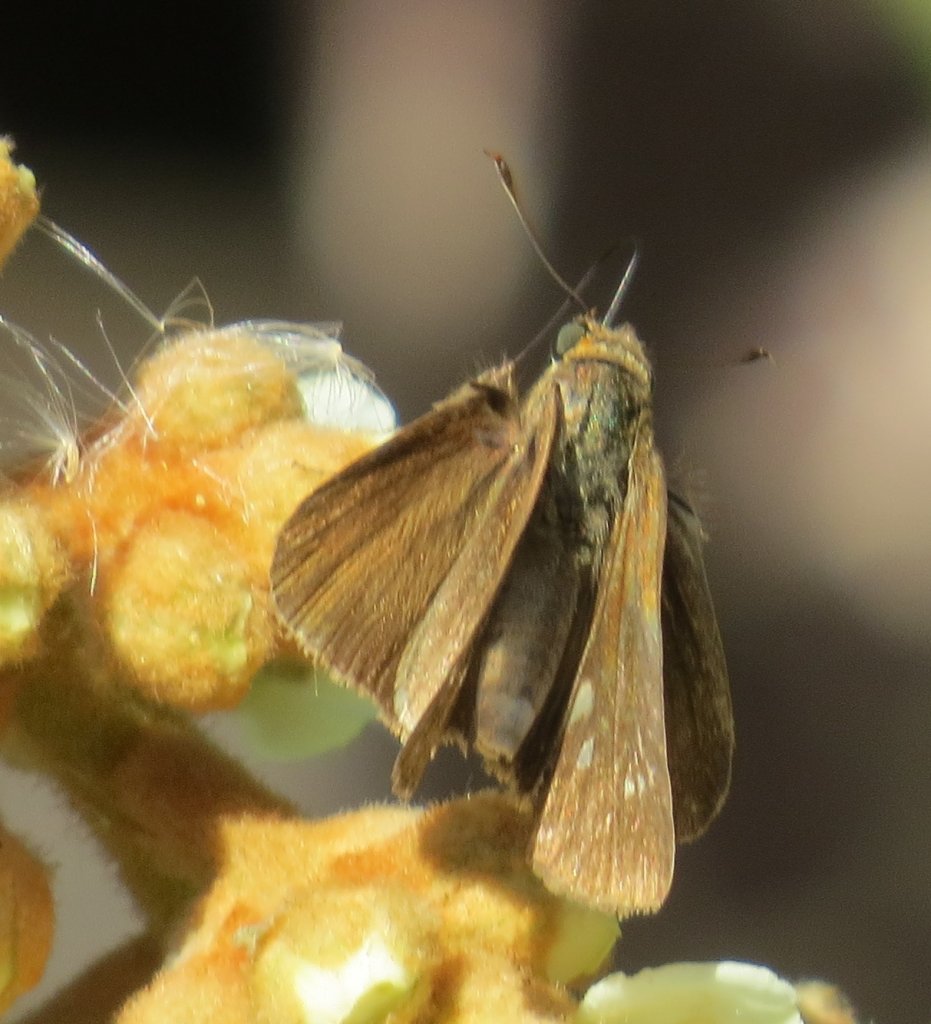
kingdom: Animalia
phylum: Arthropoda
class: Insecta
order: Lepidoptera
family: Hesperiidae
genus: Panoquina
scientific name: Panoquina ocola
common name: Ocola Skipper
